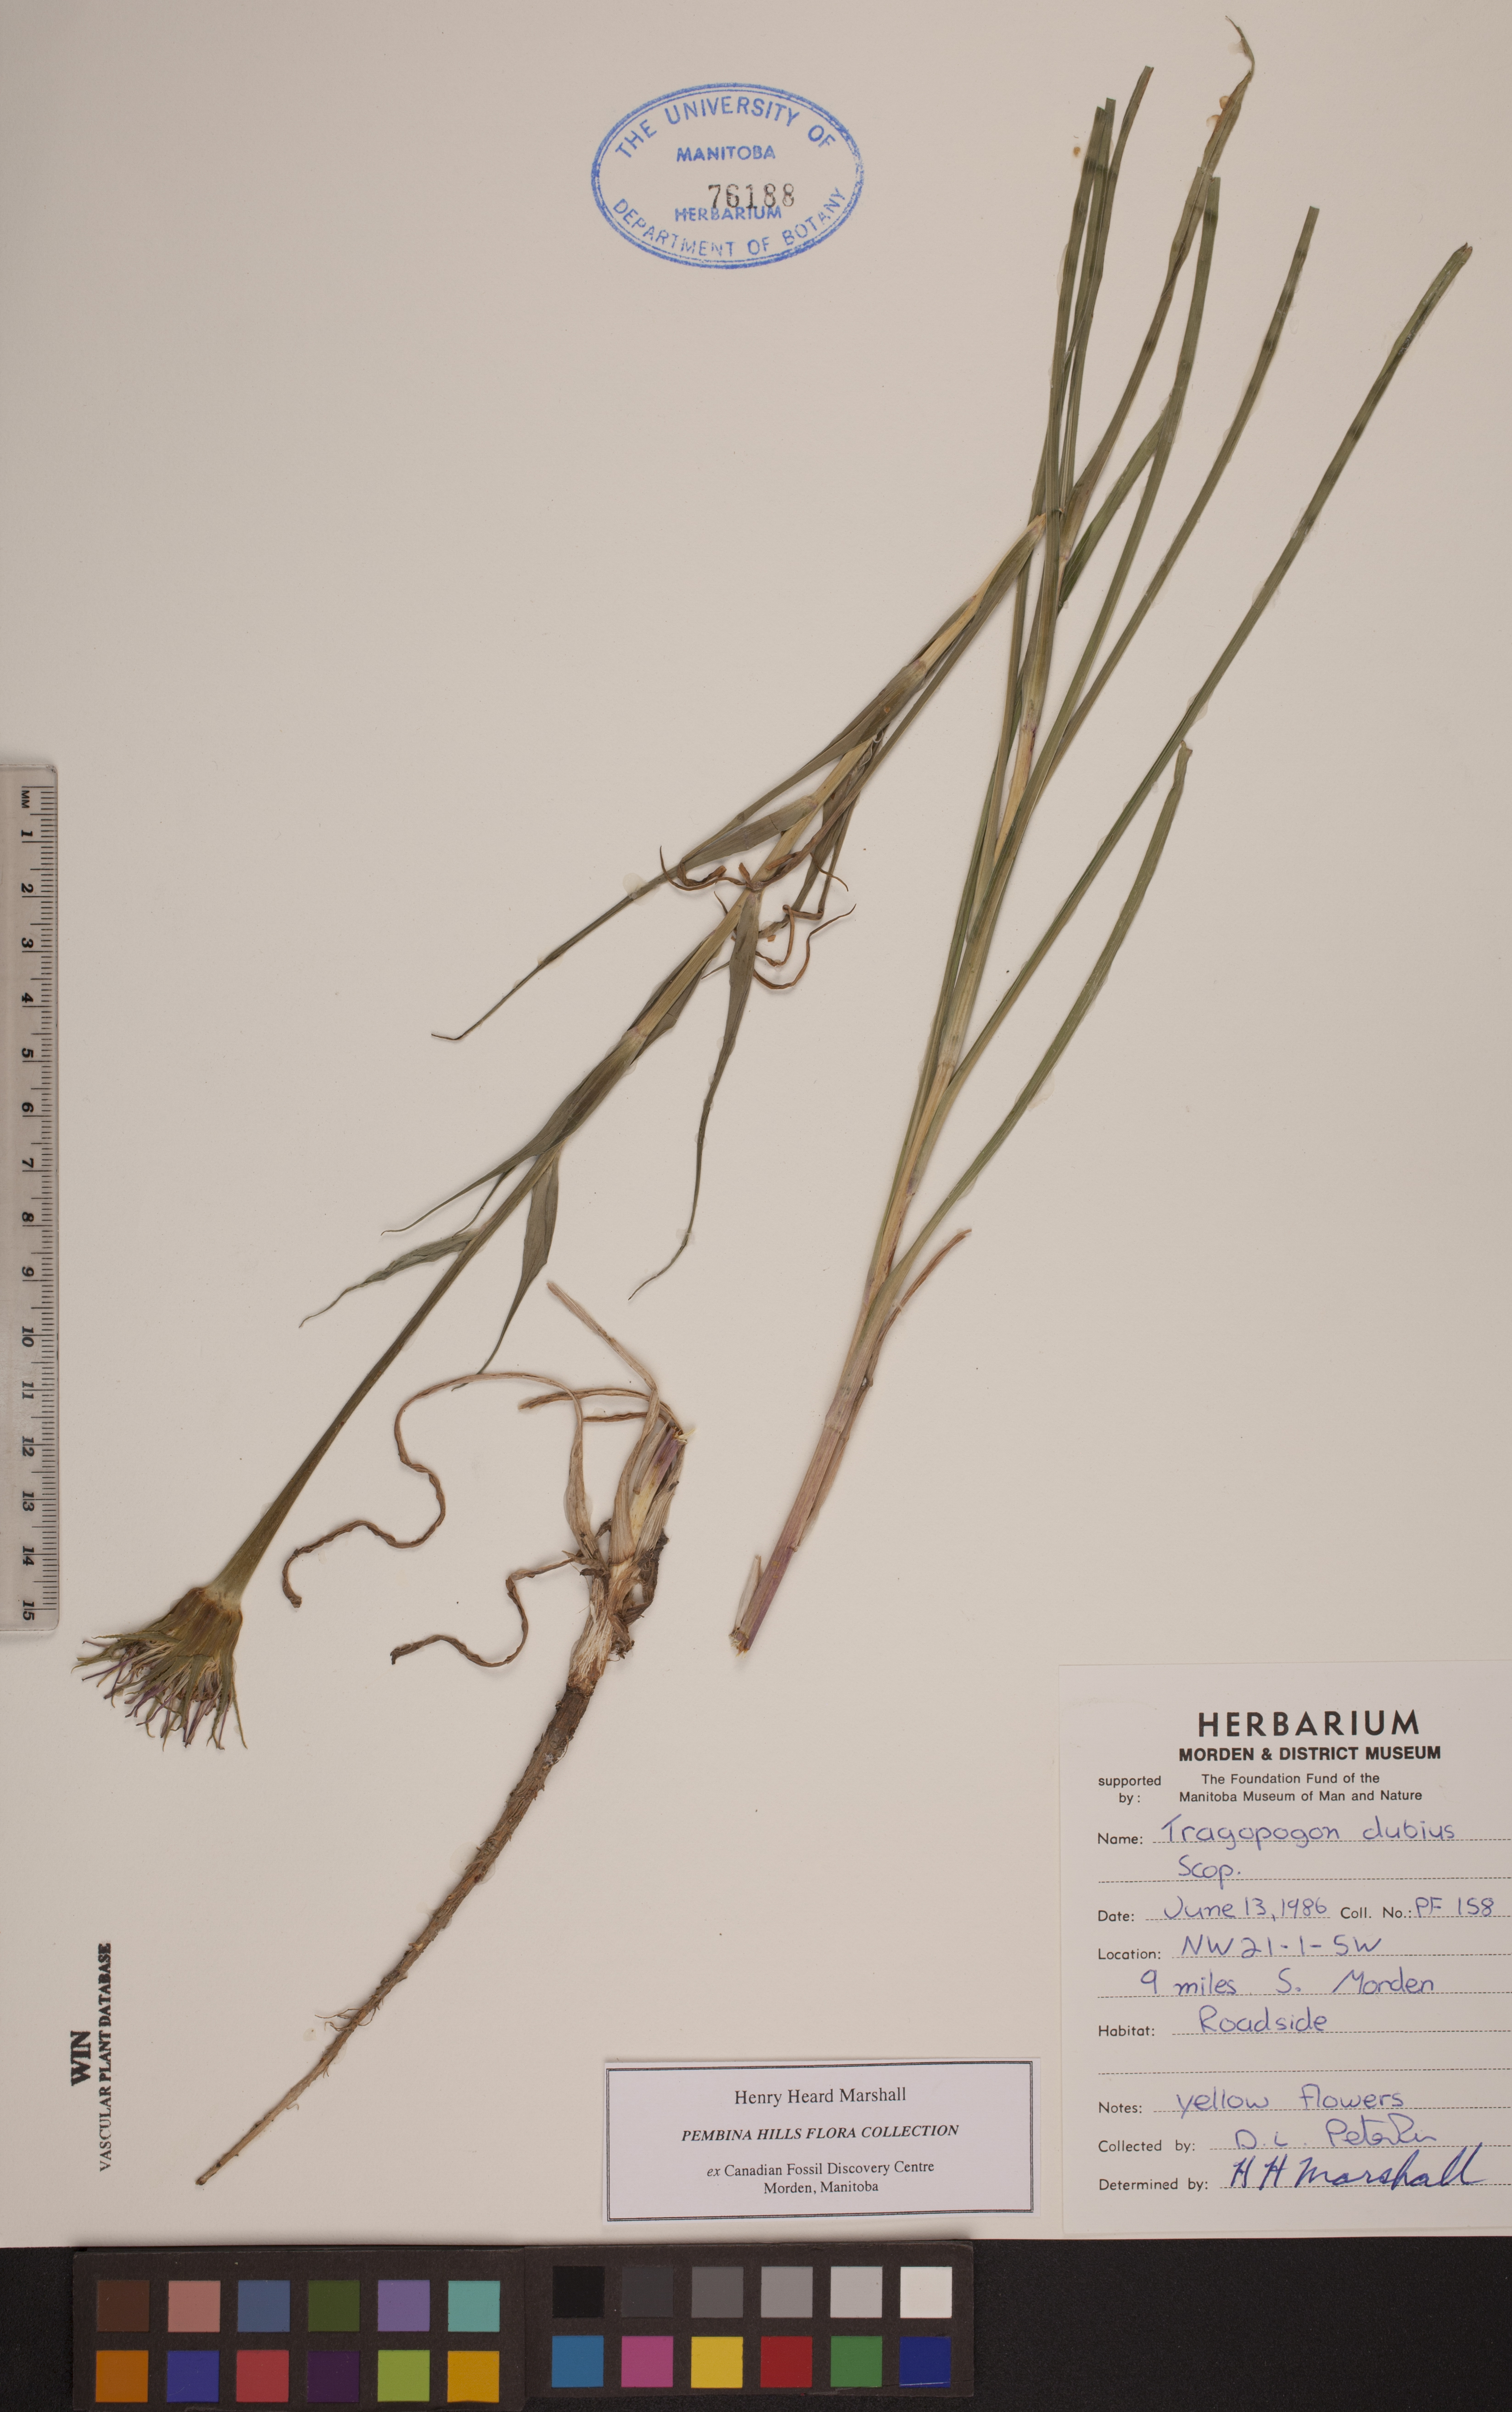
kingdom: Plantae
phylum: Tracheophyta
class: Magnoliopsida
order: Asterales
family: Asteraceae
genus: Tragopogon
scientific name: Tragopogon dubius
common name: Yellow salsify
